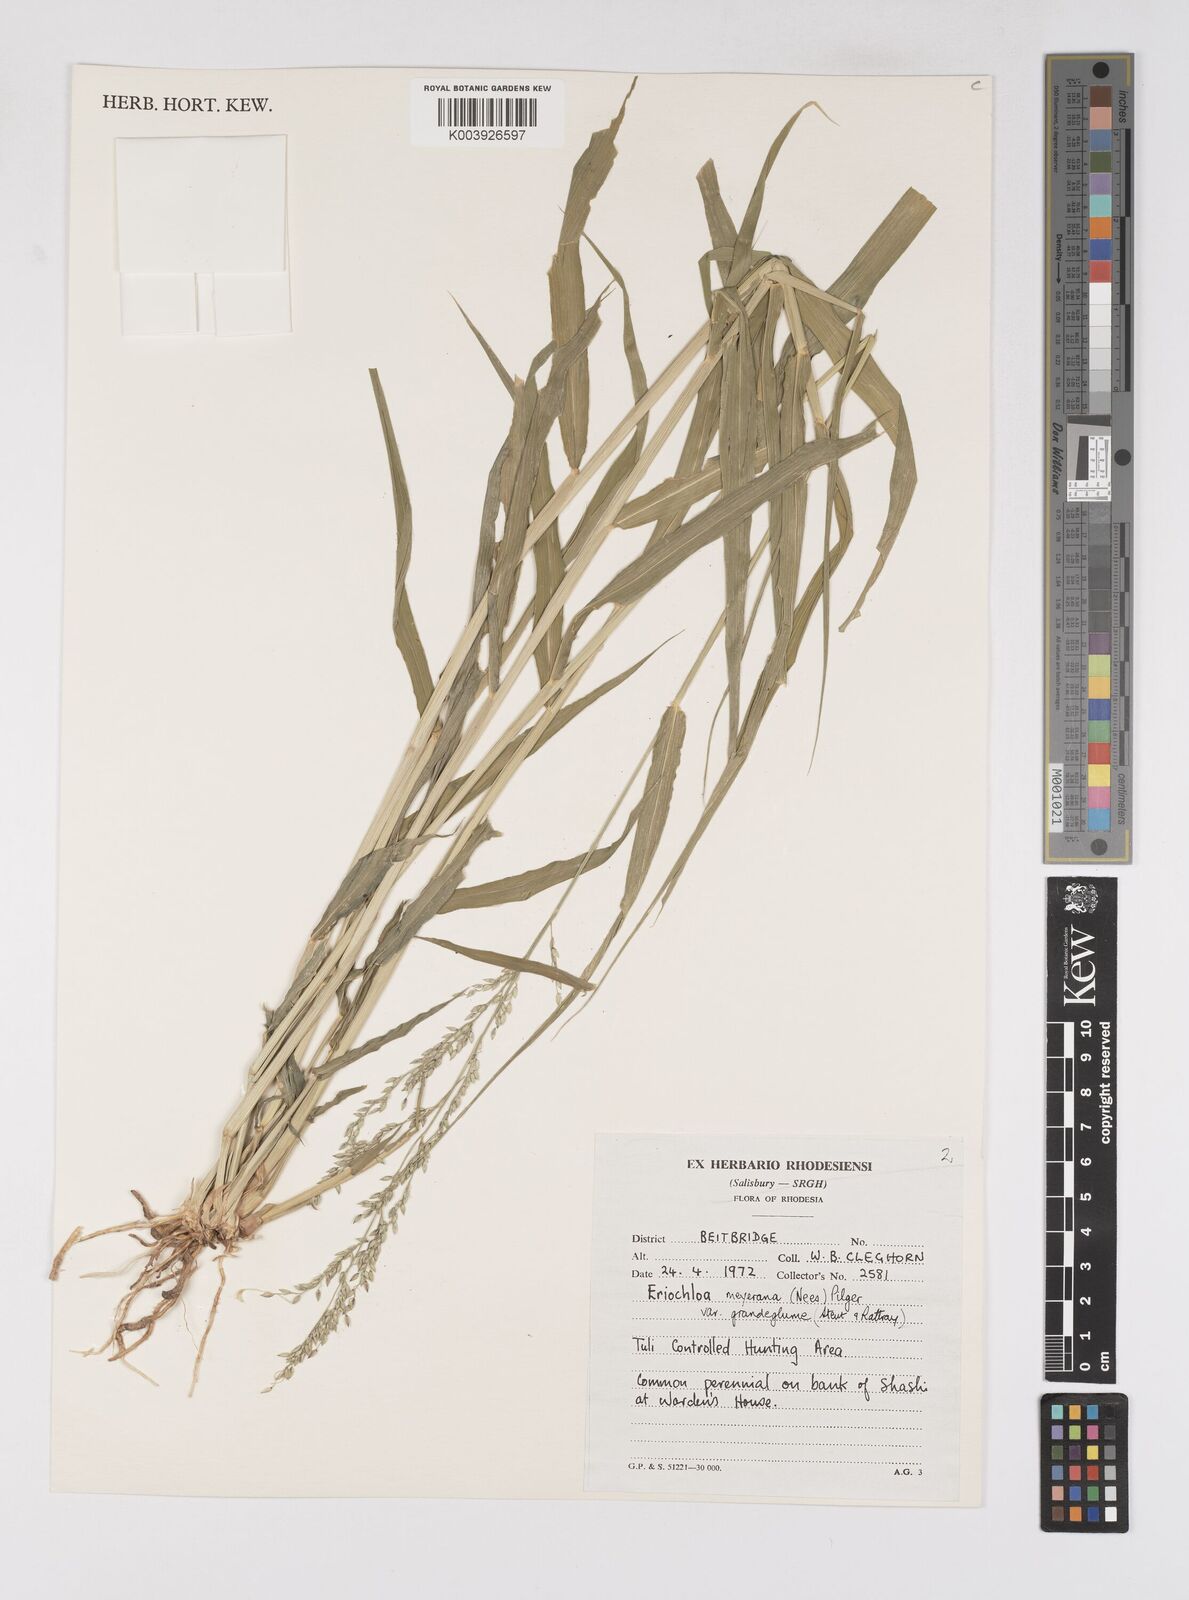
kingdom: Plantae
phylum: Tracheophyta
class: Liliopsida
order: Poales
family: Poaceae
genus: Eriochloa
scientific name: Eriochloa meyeriana
